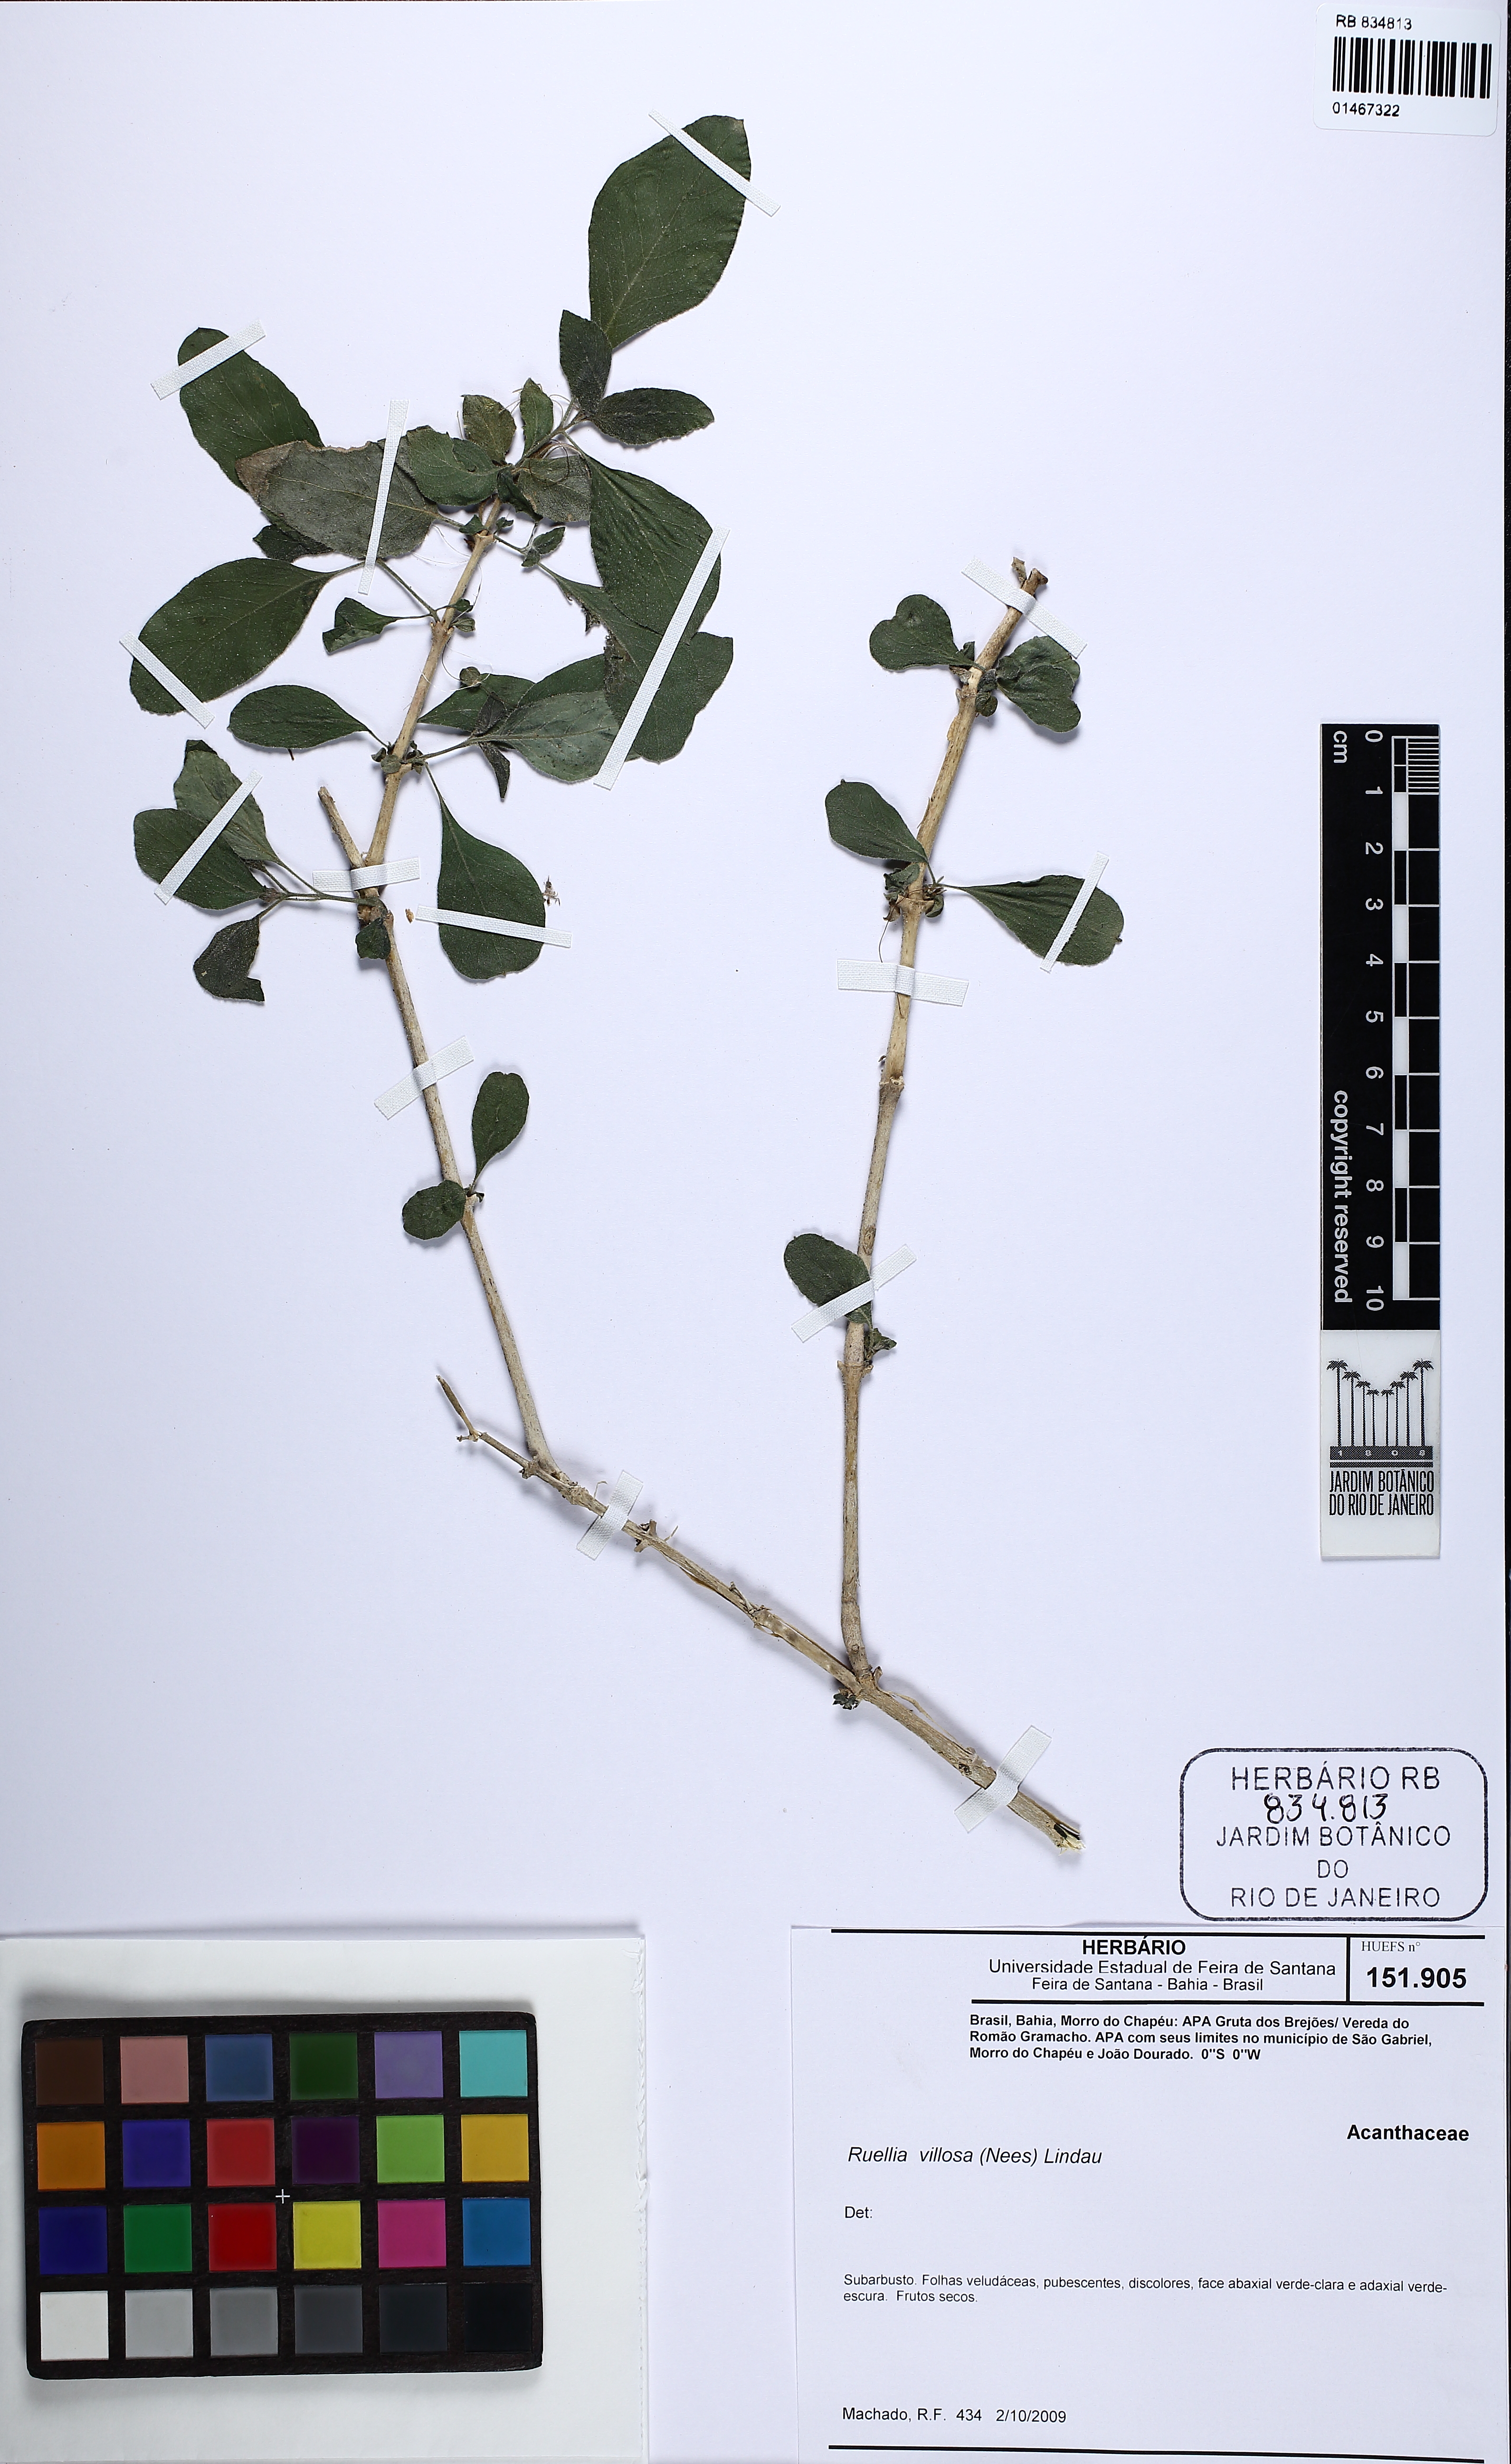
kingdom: Plantae
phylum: Tracheophyta
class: Magnoliopsida
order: Lamiales
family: Acanthaceae
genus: Ruellia
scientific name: Ruellia villosa
